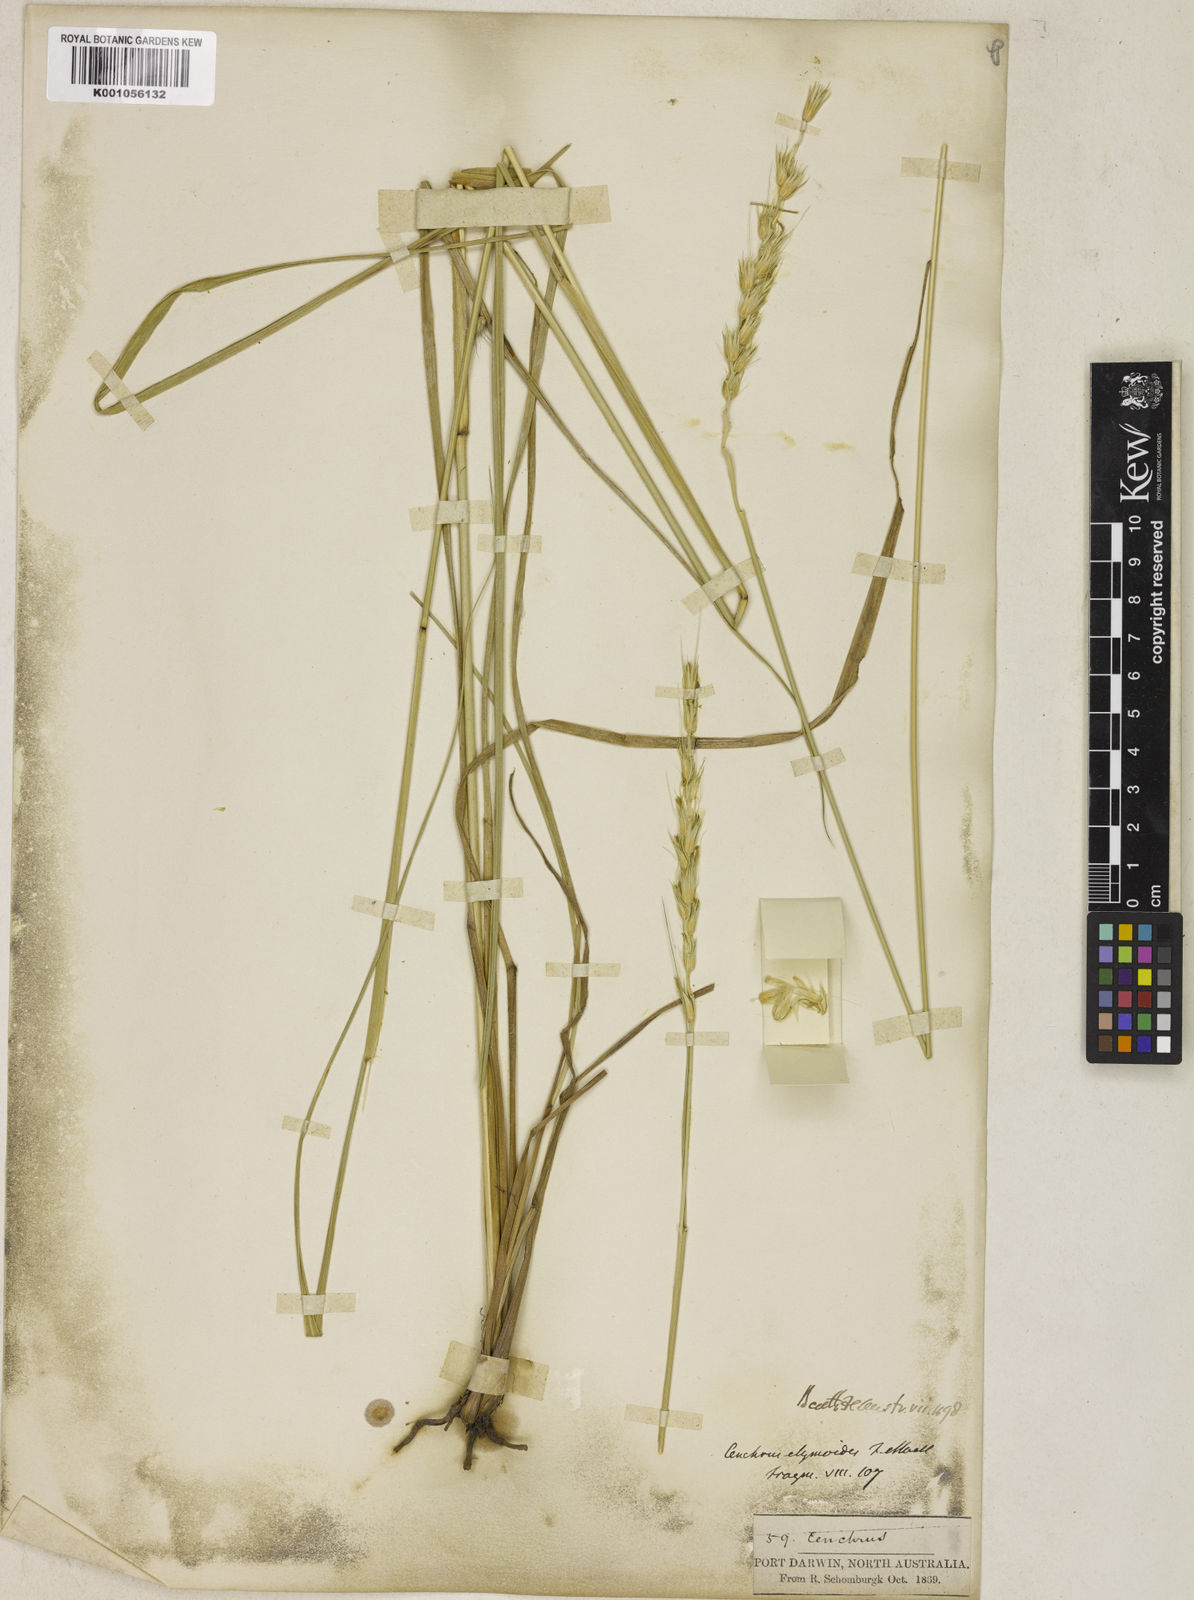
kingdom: Plantae
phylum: Tracheophyta
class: Liliopsida
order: Poales
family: Poaceae
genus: Cenchrus
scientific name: Cenchrus elymoides
